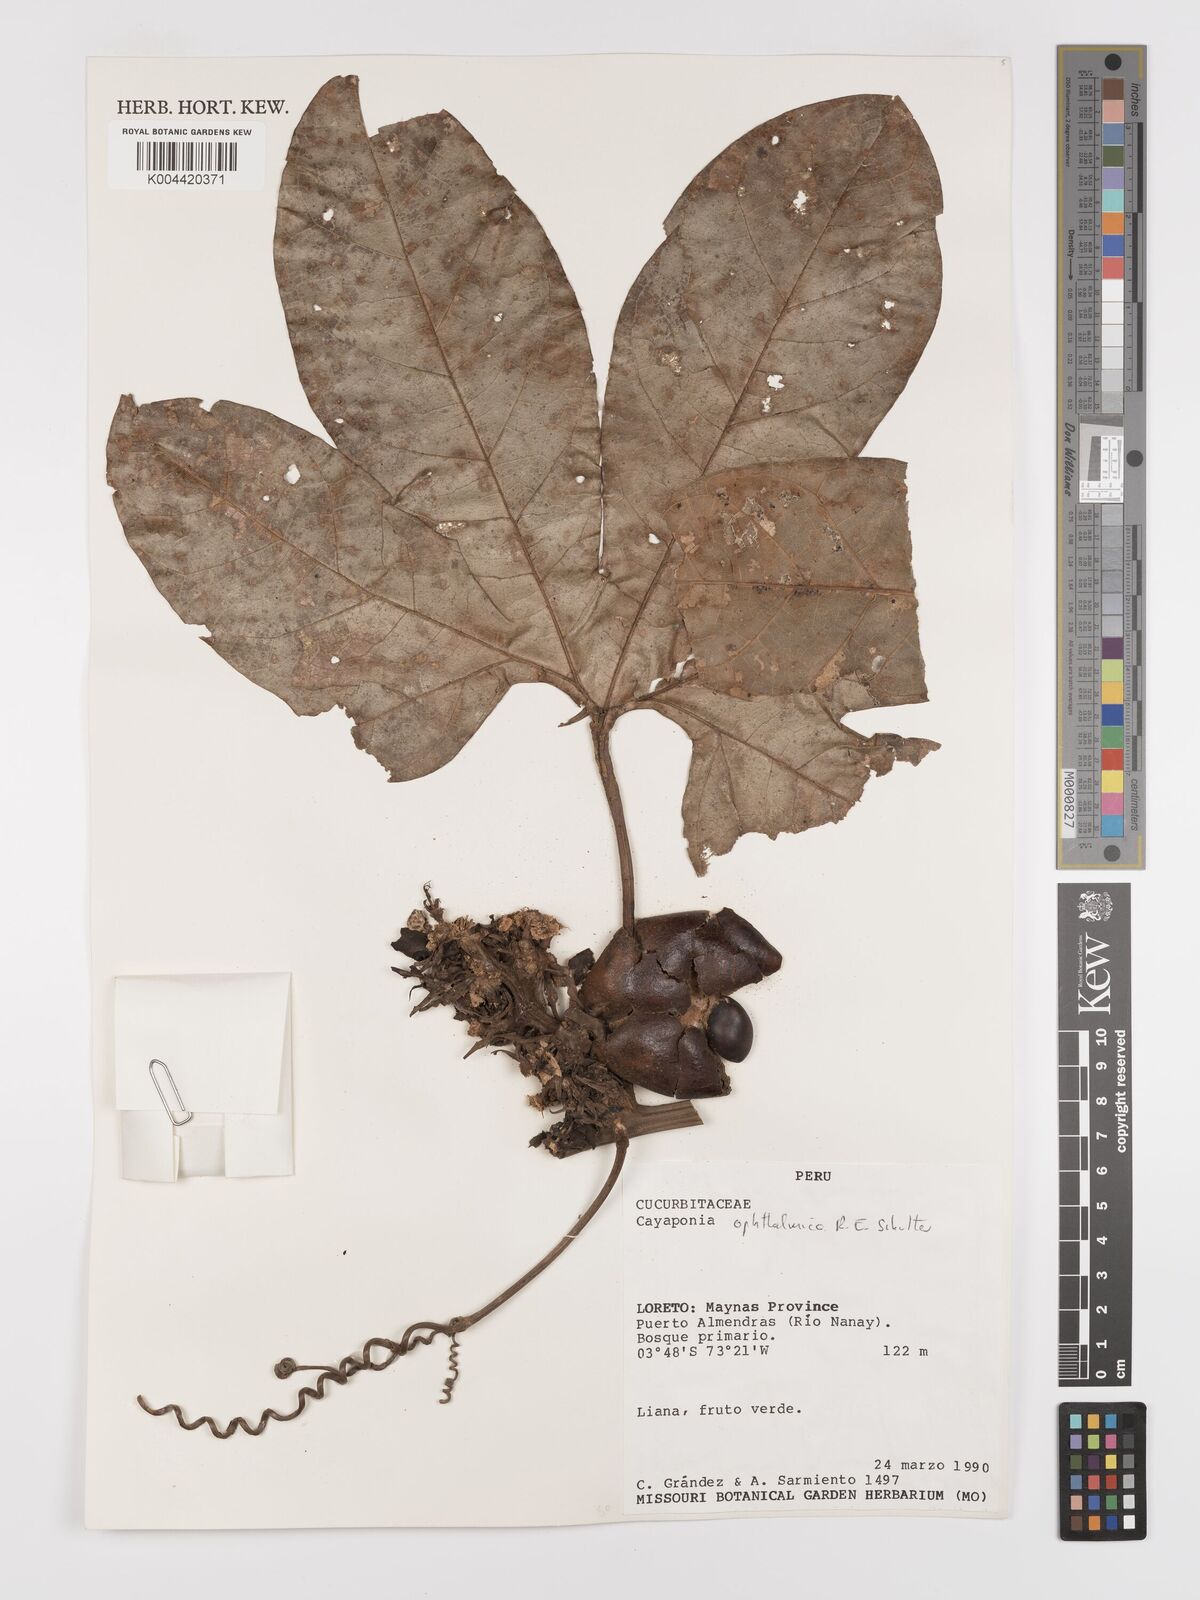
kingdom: Plantae
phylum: Tracheophyta
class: Magnoliopsida
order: Cucurbitales
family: Cucurbitaceae
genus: Cayaponia
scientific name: Cayaponia ophthalmica
